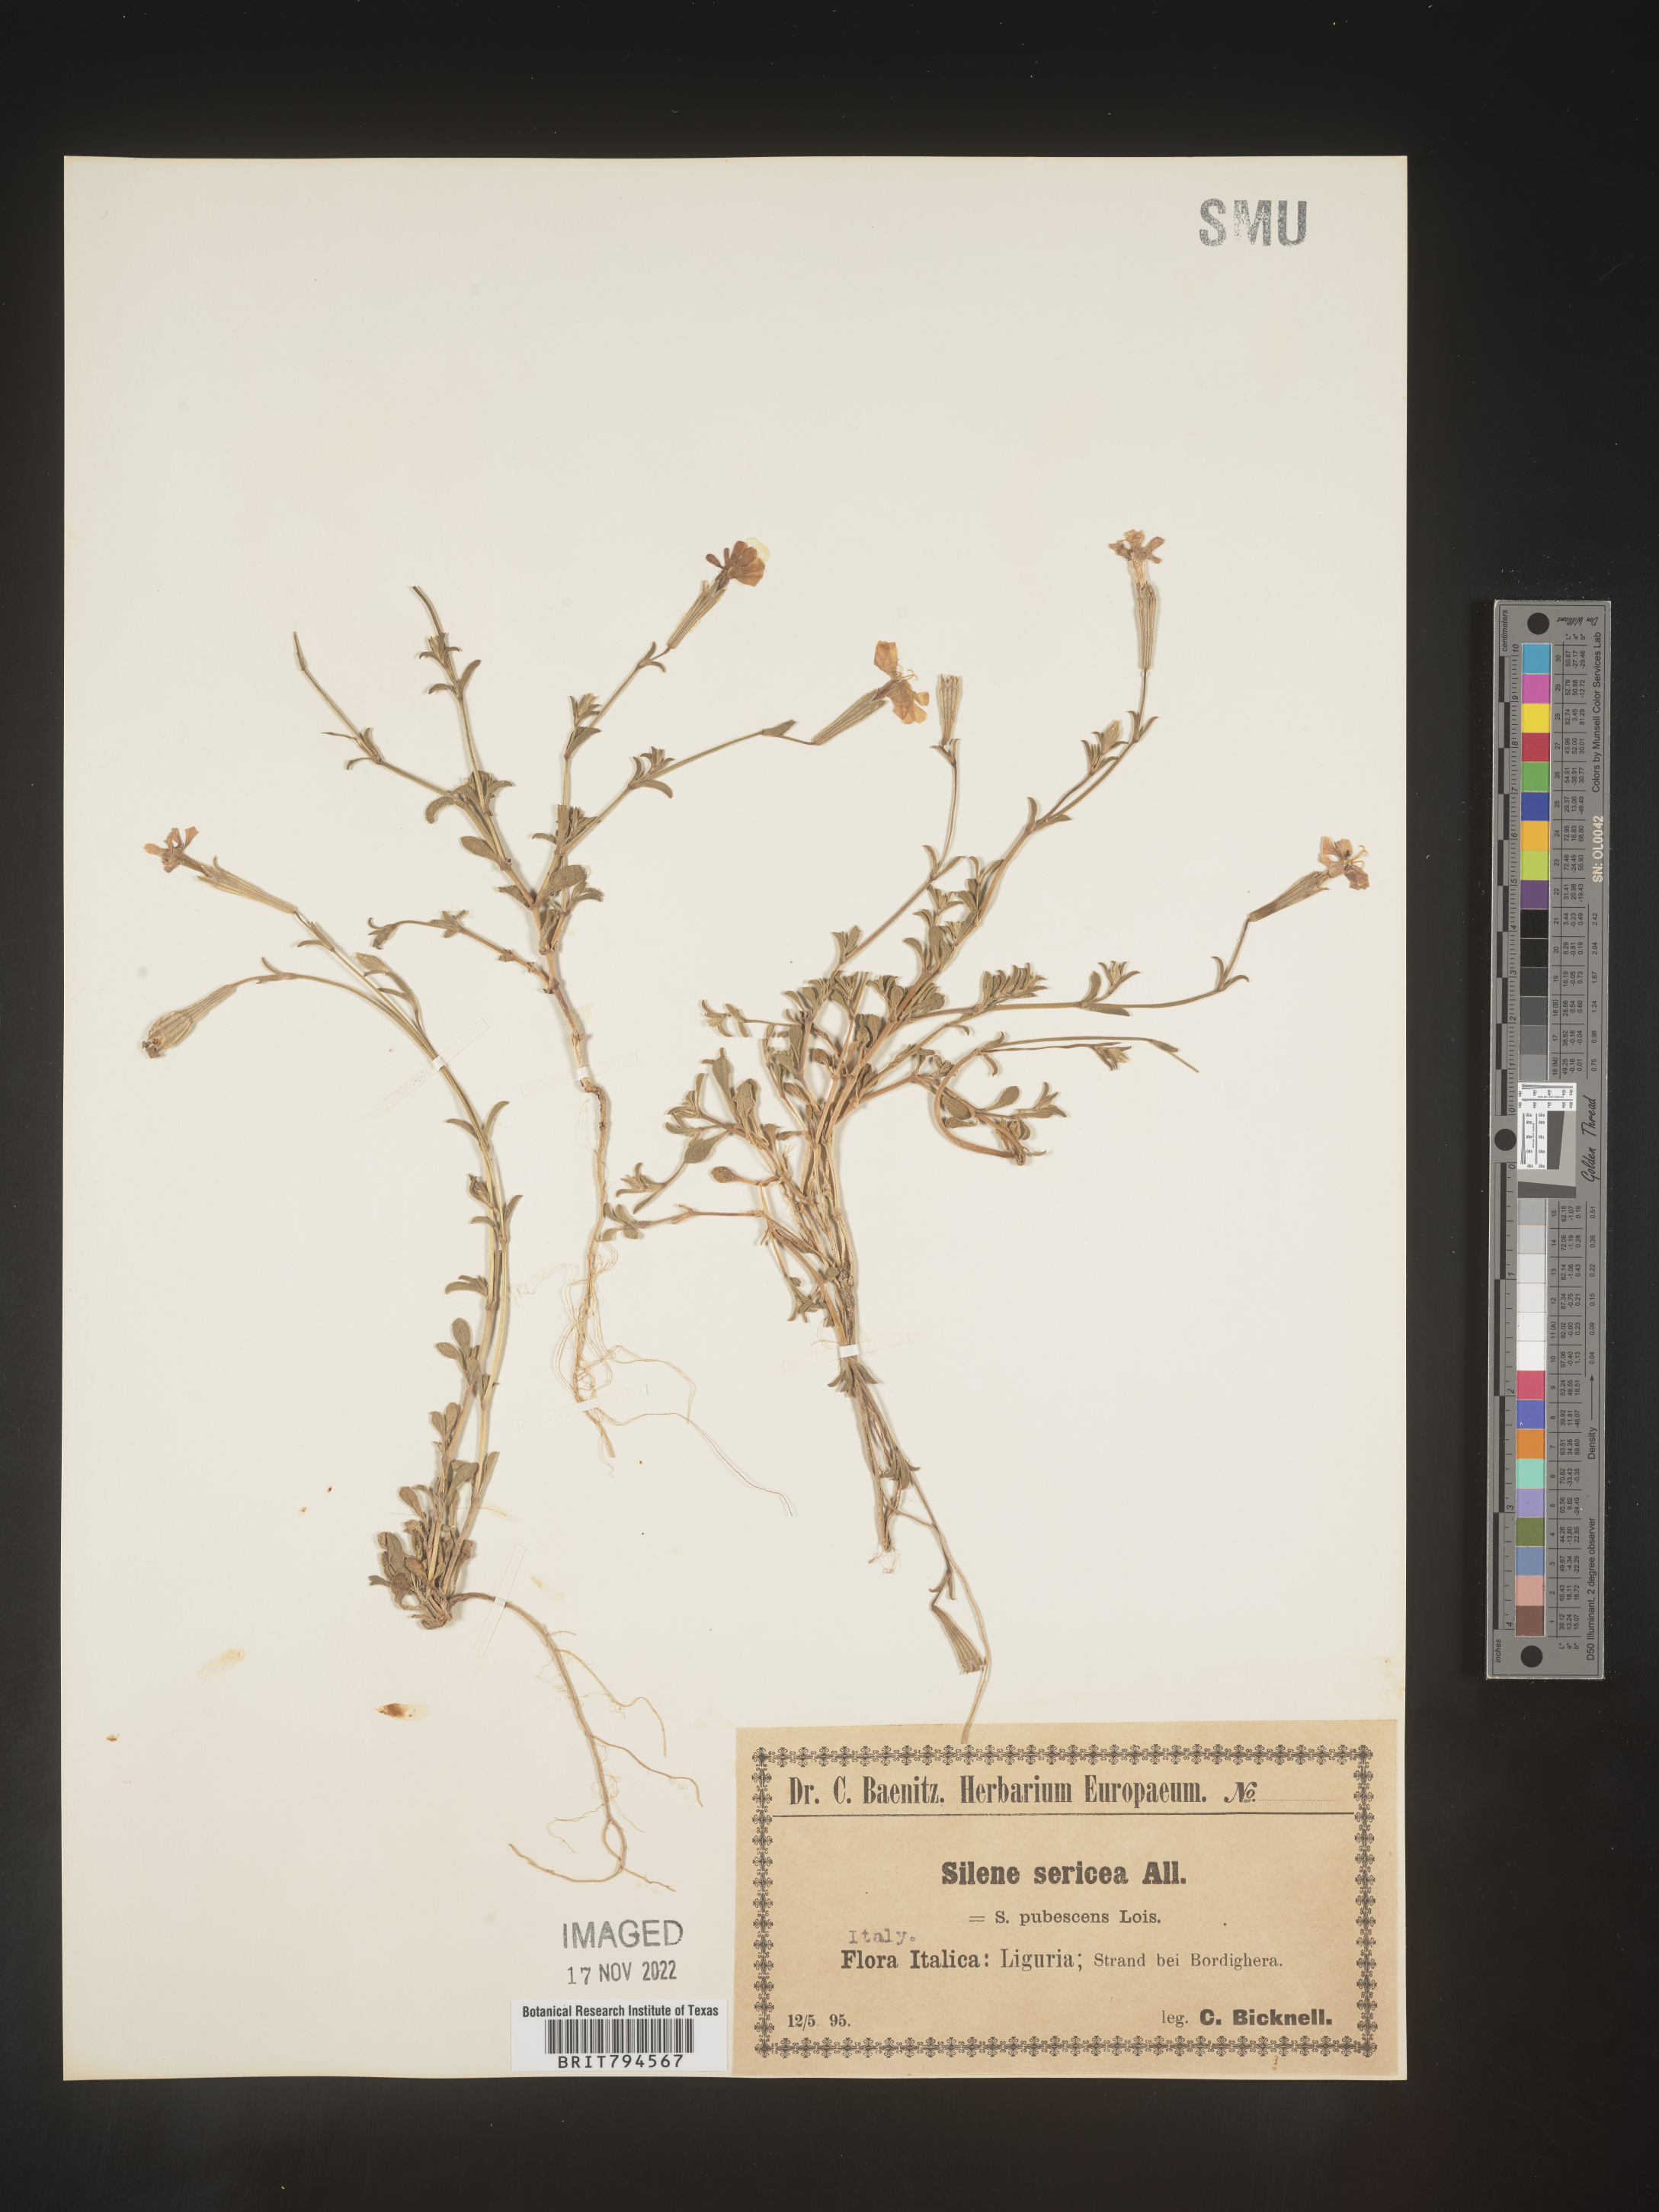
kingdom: Plantae
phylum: Tracheophyta
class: Magnoliopsida
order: Caryophyllales
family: Caryophyllaceae
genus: Silene
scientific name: Silene sericea
